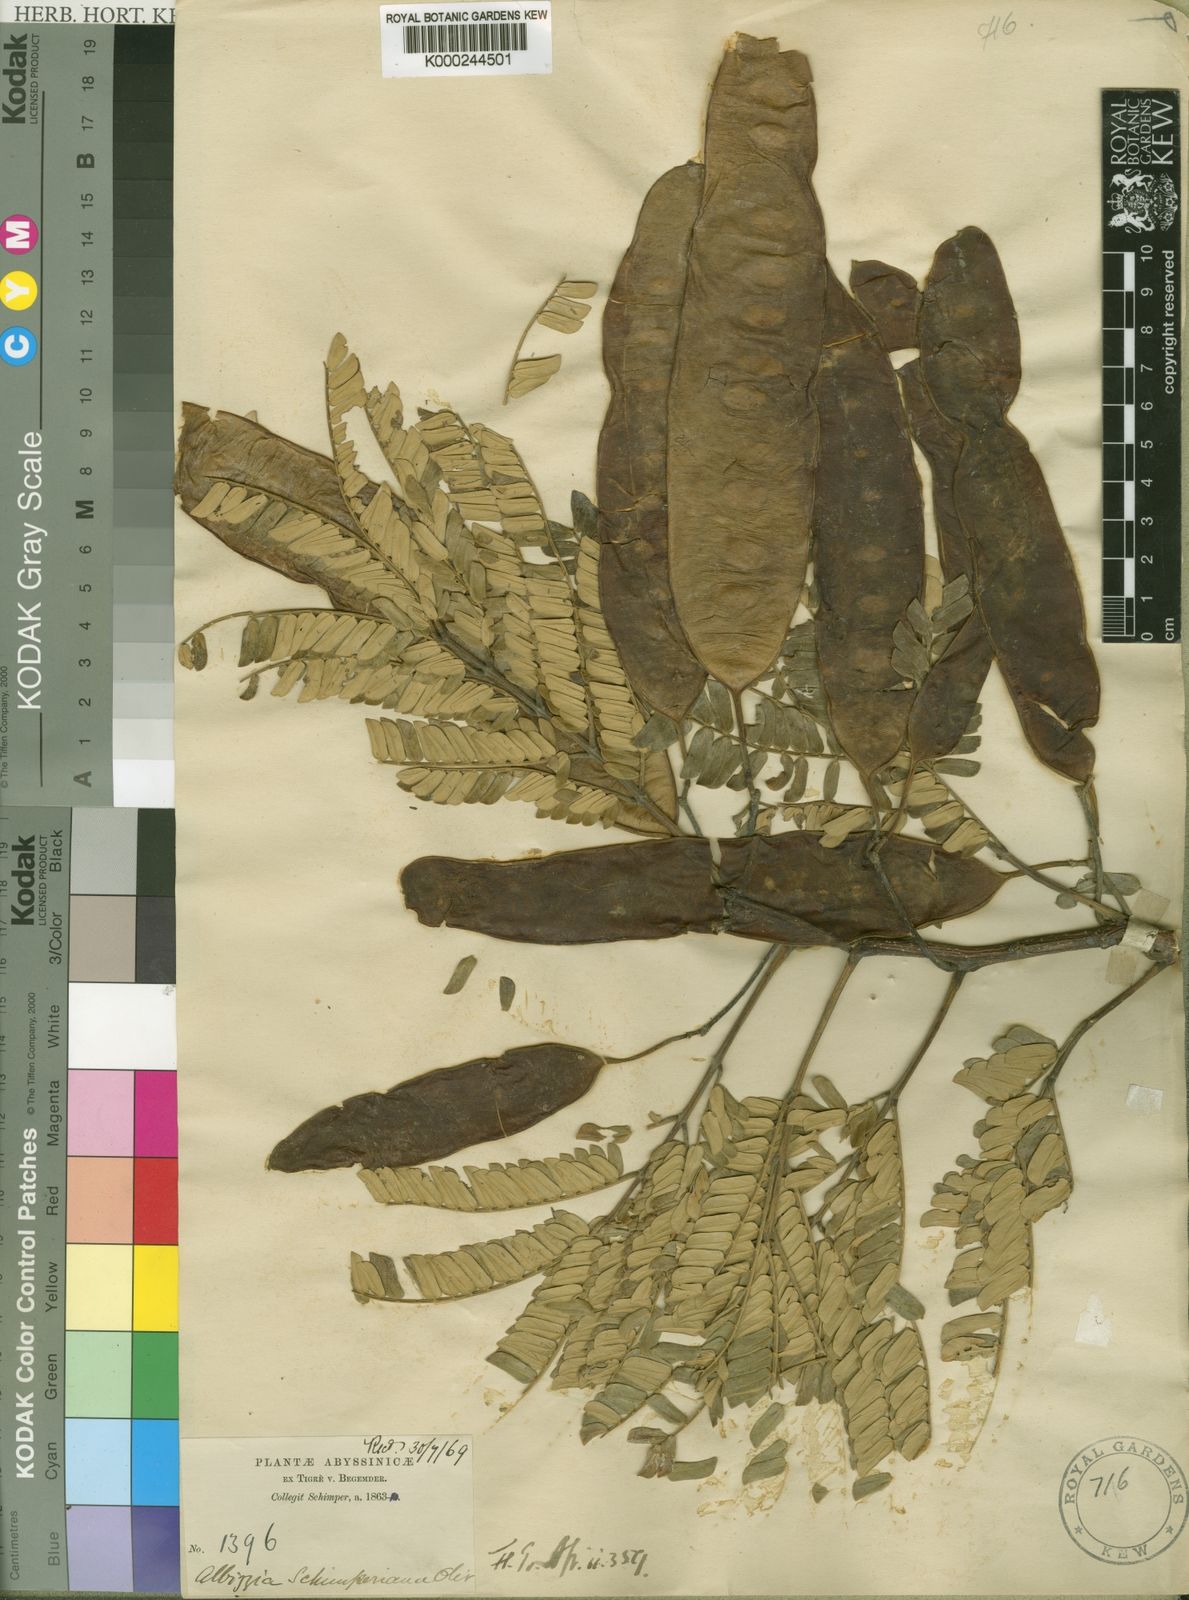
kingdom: Plantae
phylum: Tracheophyta
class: Magnoliopsida
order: Fabales
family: Fabaceae
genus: Albizia
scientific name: Albizia
